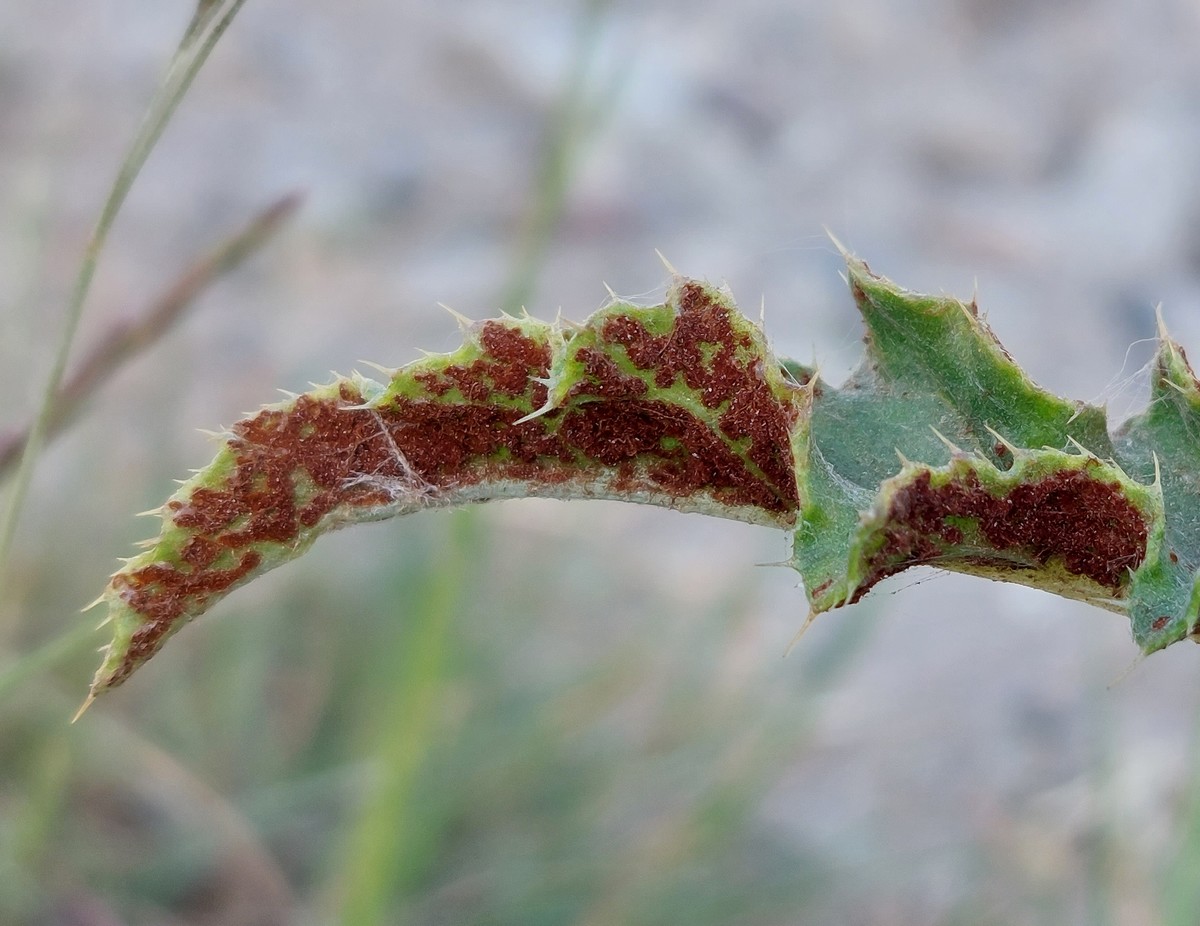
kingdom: Fungi
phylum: Basidiomycota
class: Pucciniomycetes
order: Pucciniales
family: Pucciniaceae
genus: Puccinia
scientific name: Puccinia suaveolens
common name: tidsel-tvecellerust
